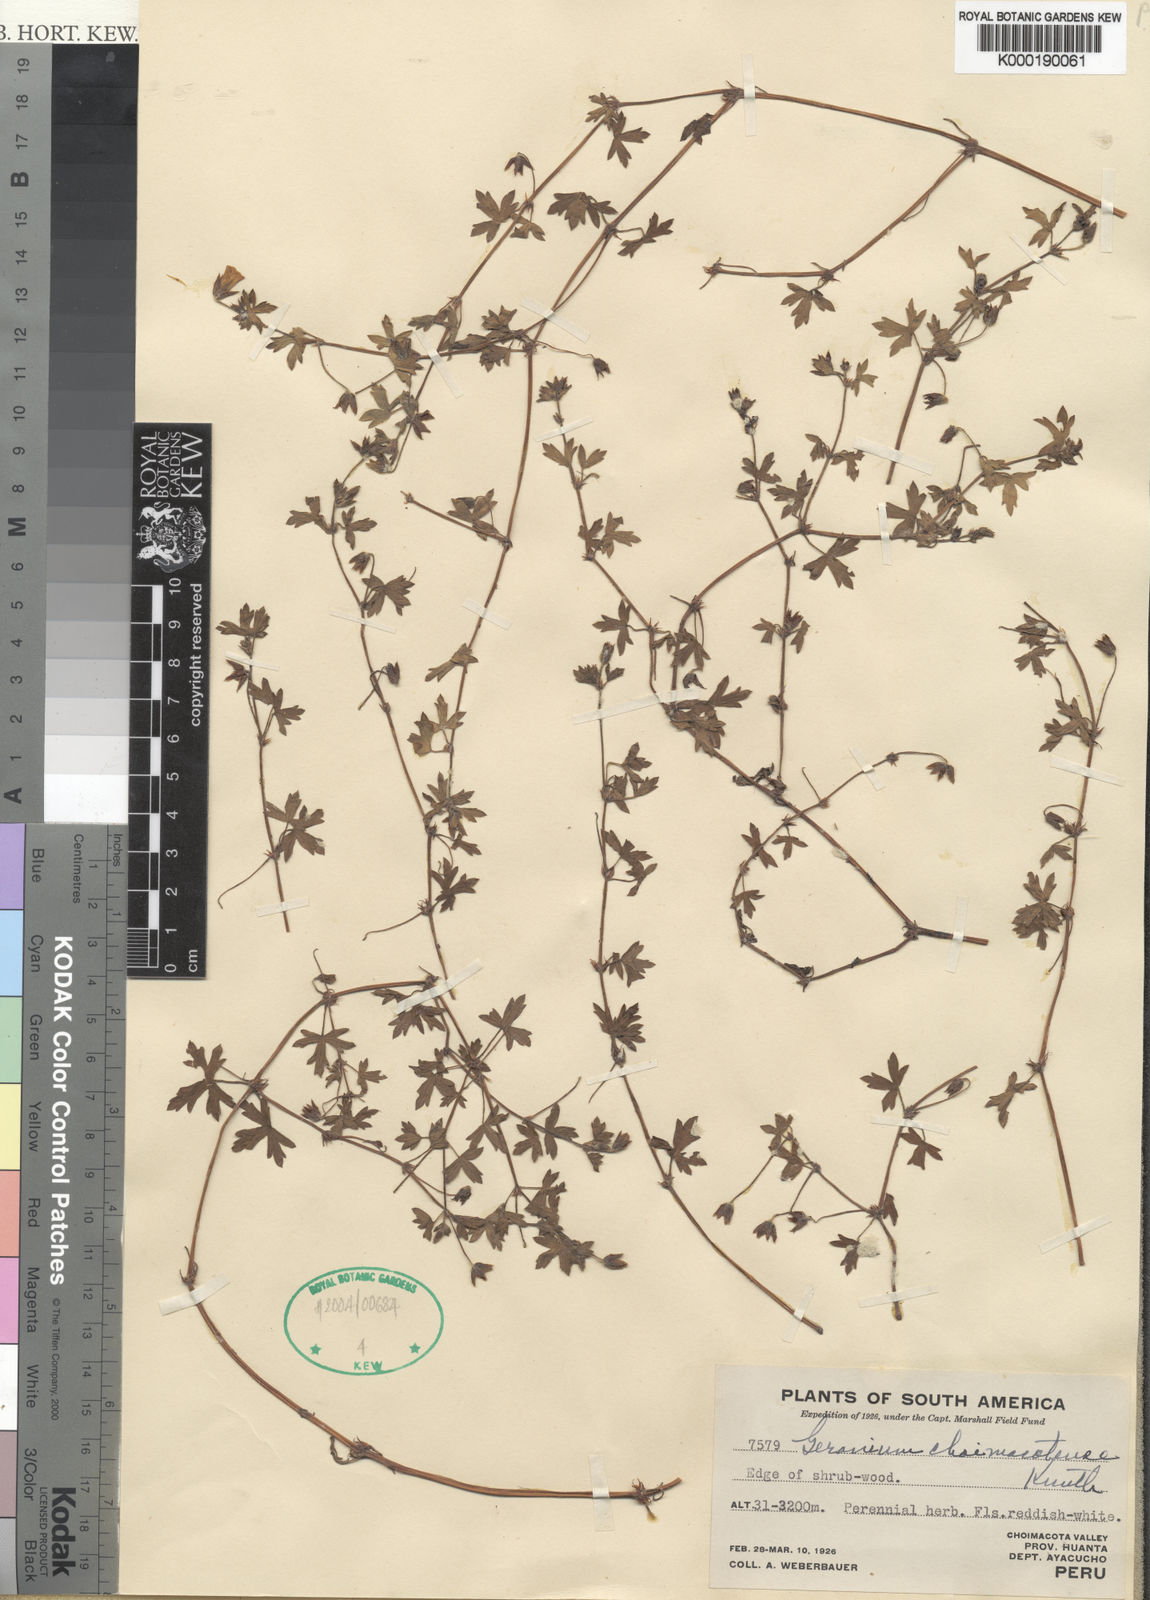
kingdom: Plantae
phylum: Tracheophyta
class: Magnoliopsida
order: Geraniales
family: Geraniaceae
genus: Geranium
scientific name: Geranium chilloense
